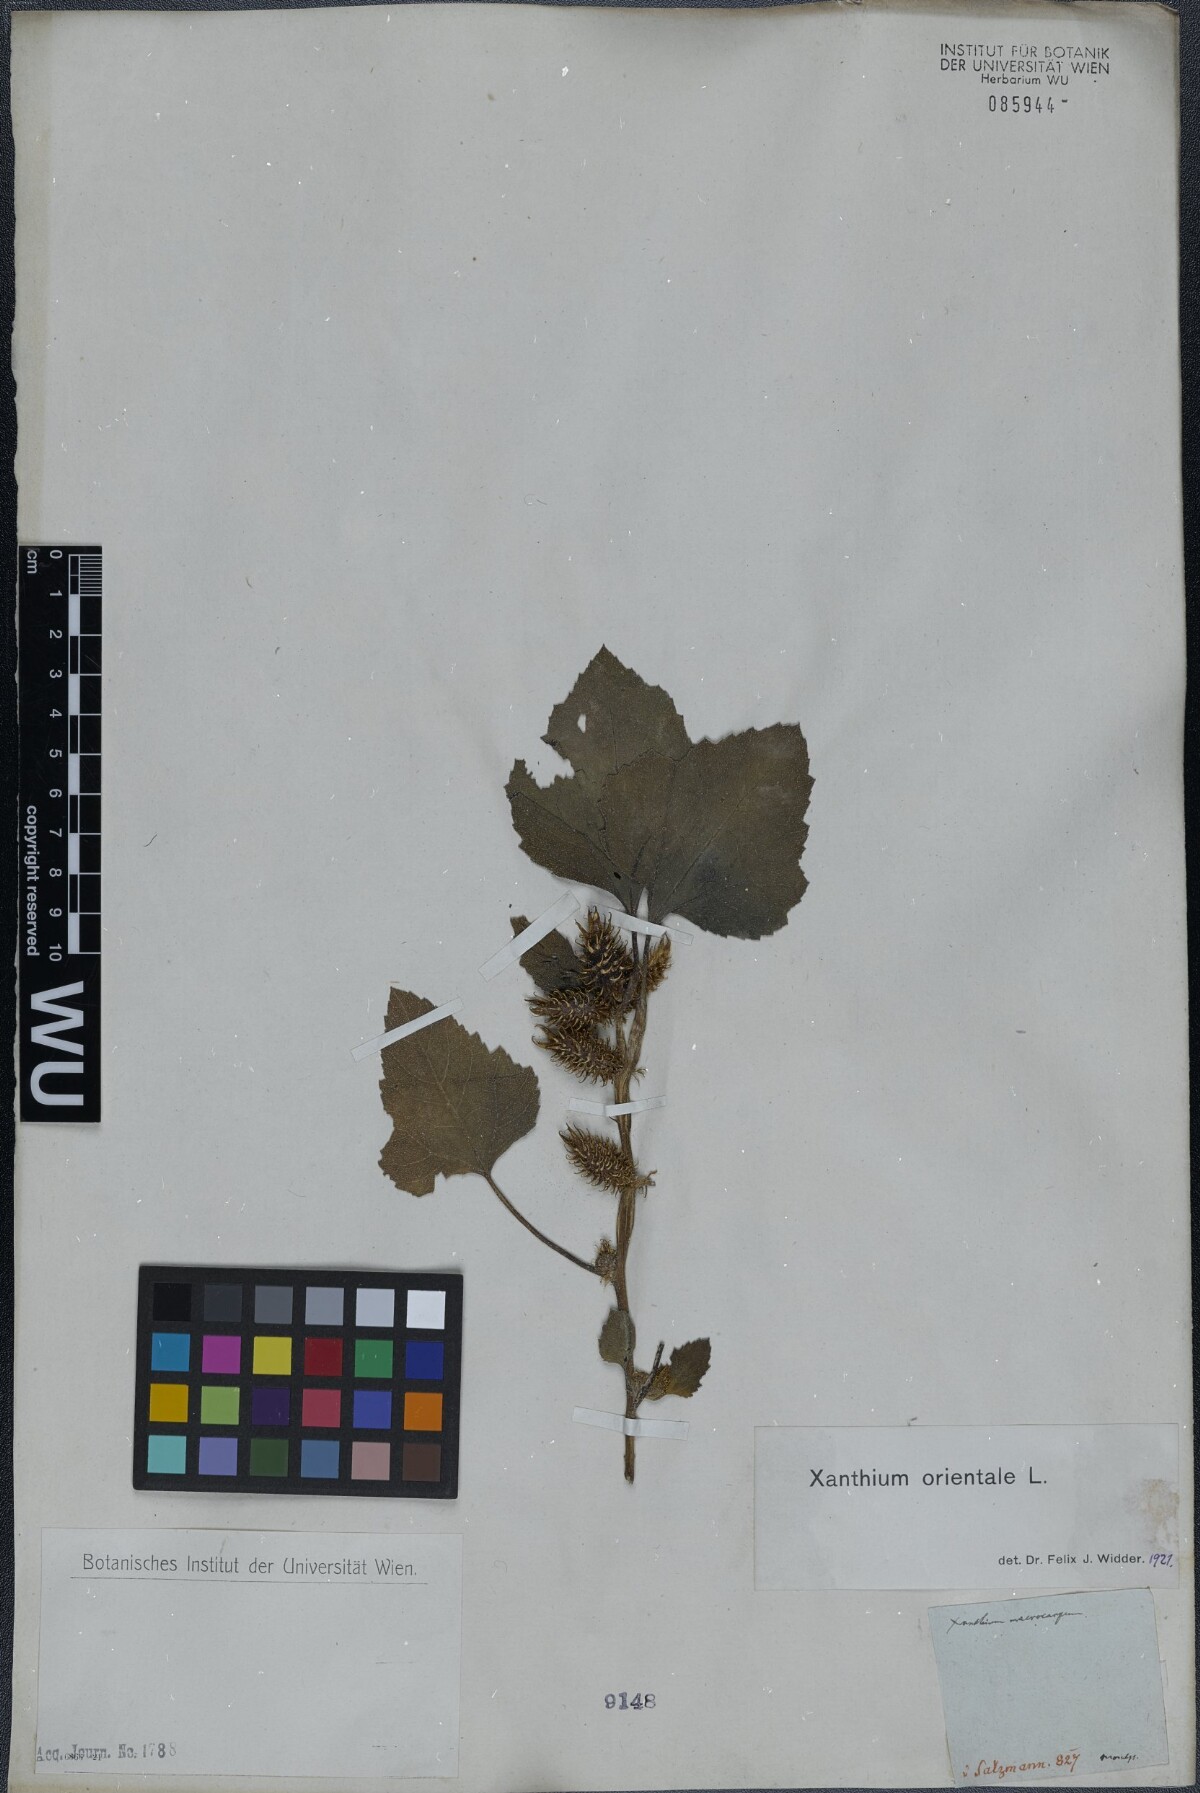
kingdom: Plantae
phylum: Tracheophyta
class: Magnoliopsida
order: Asterales
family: Asteraceae
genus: Xanthium
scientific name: Xanthium orientale
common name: Californian burr
